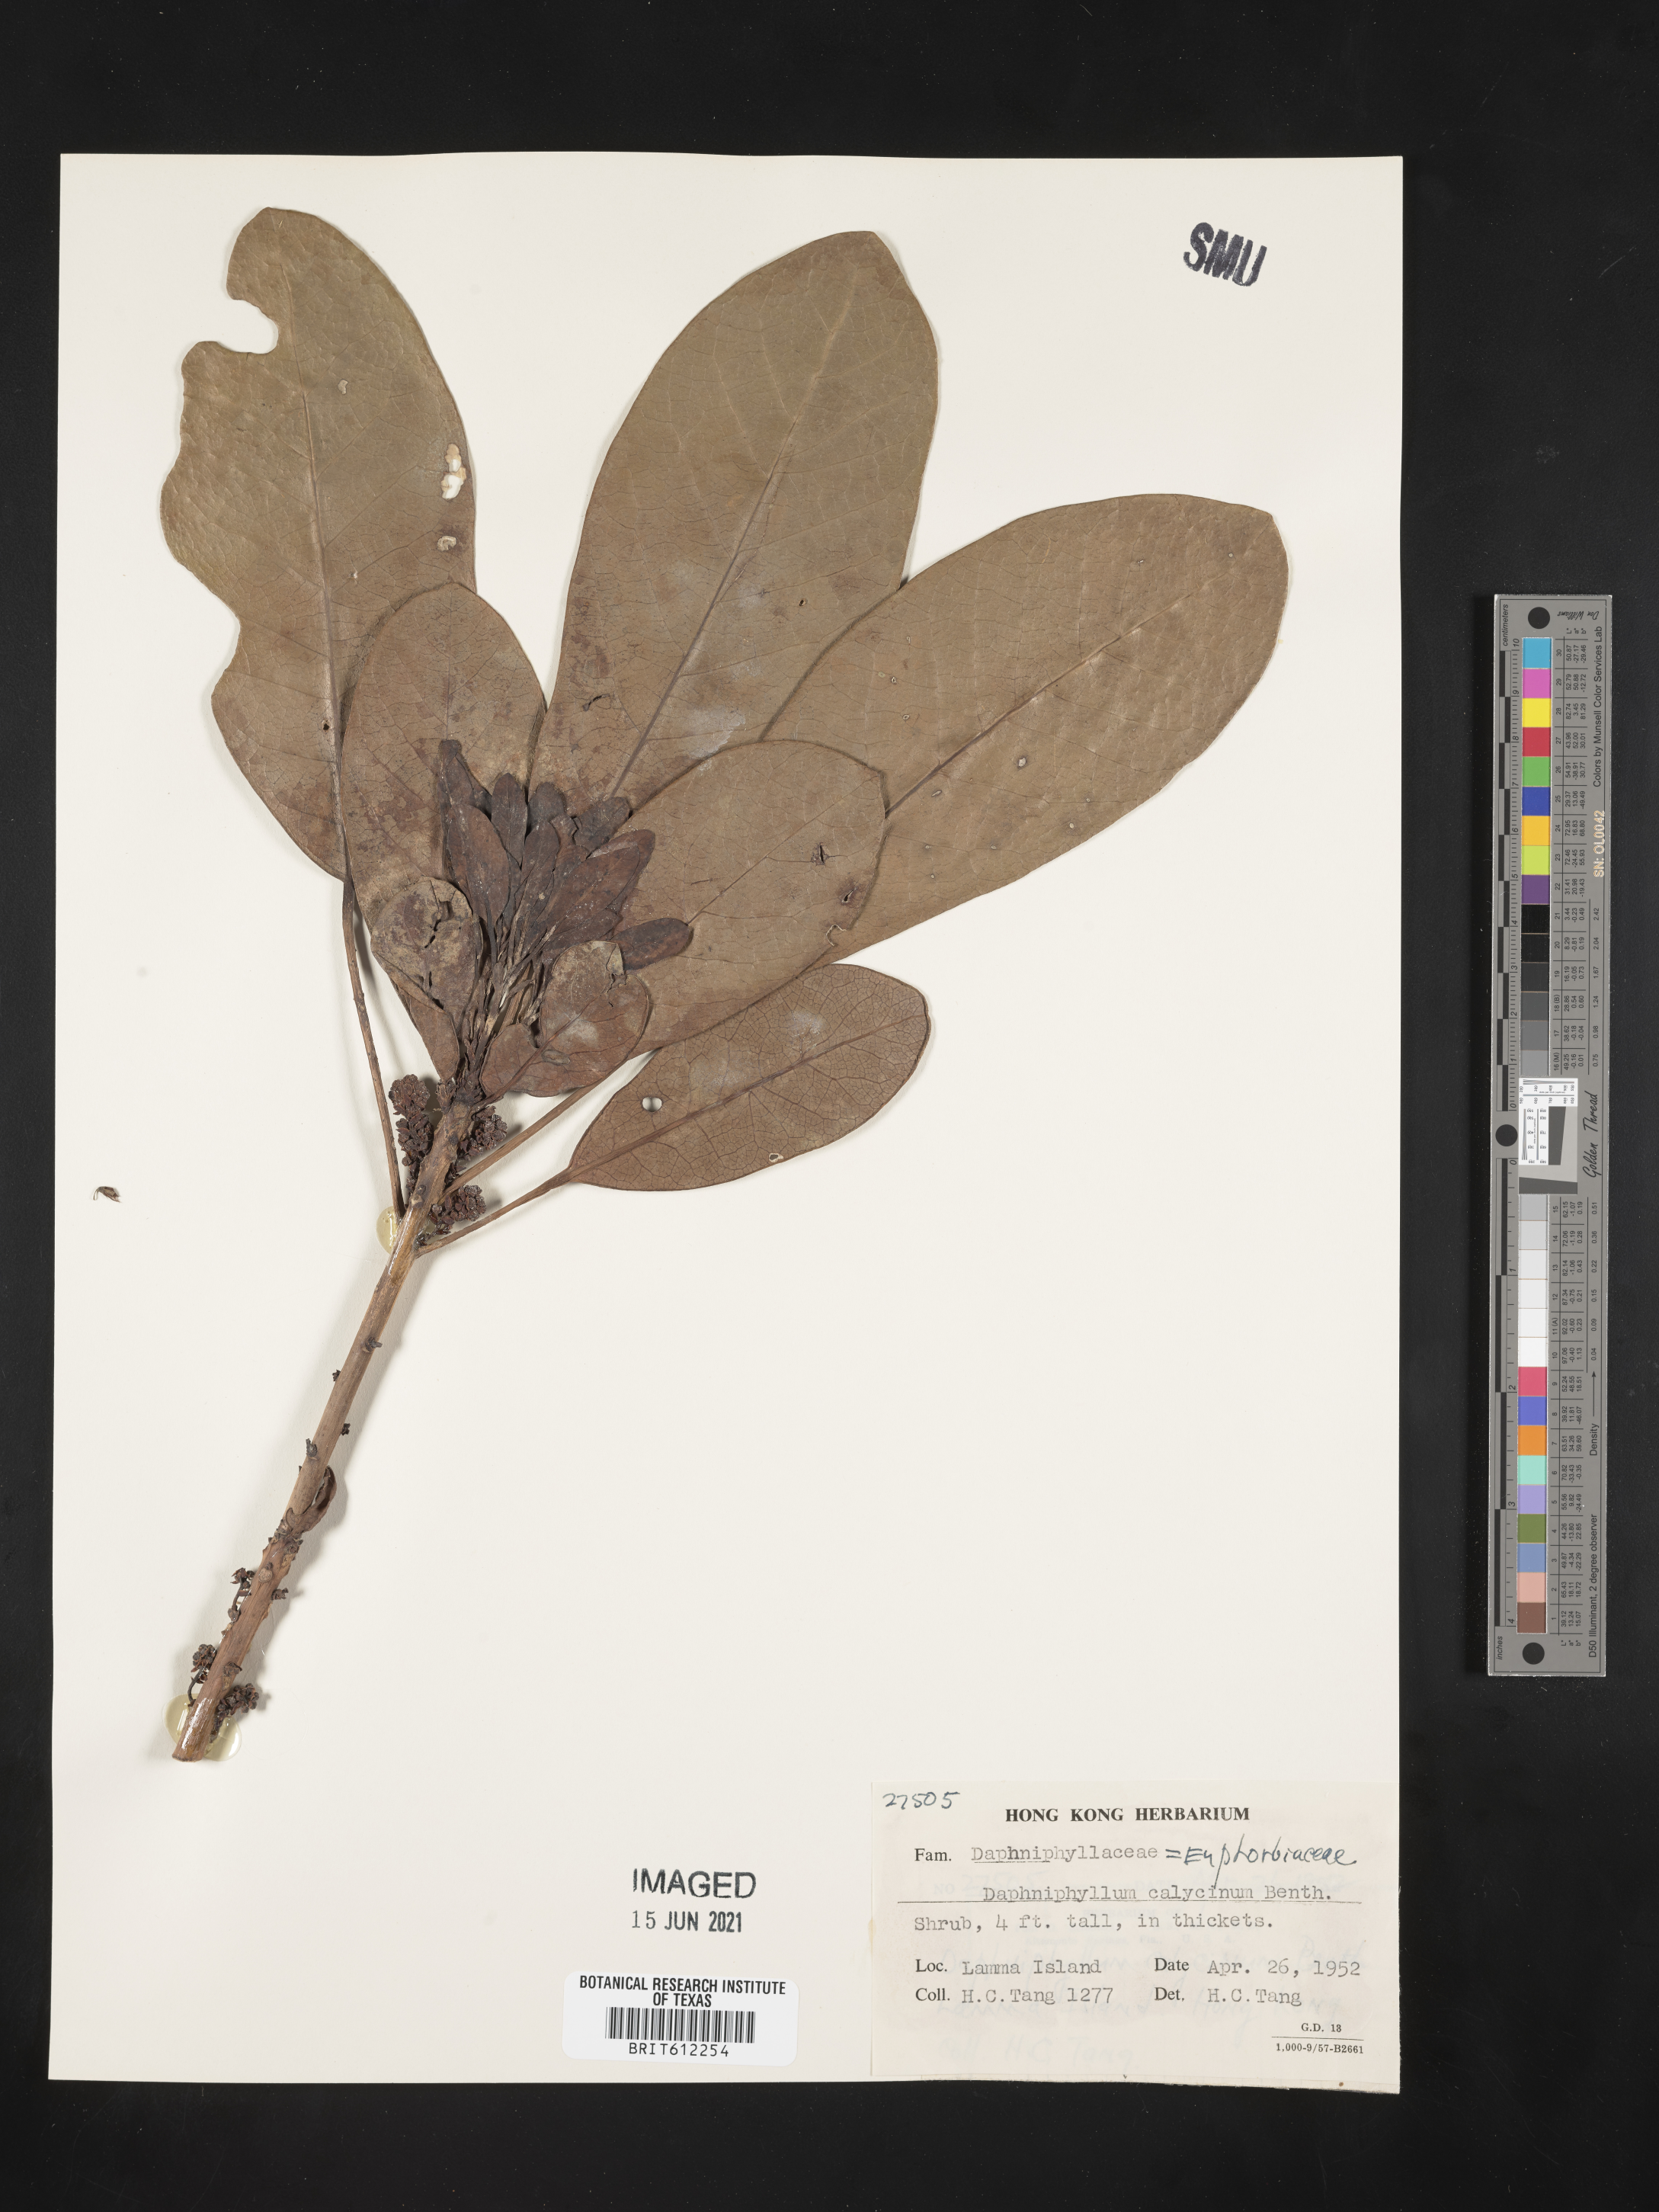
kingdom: Plantae
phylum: Tracheophyta
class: Magnoliopsida
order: Saxifragales
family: Daphniphyllaceae
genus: Daphniphyllum
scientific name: Daphniphyllum calycinum
